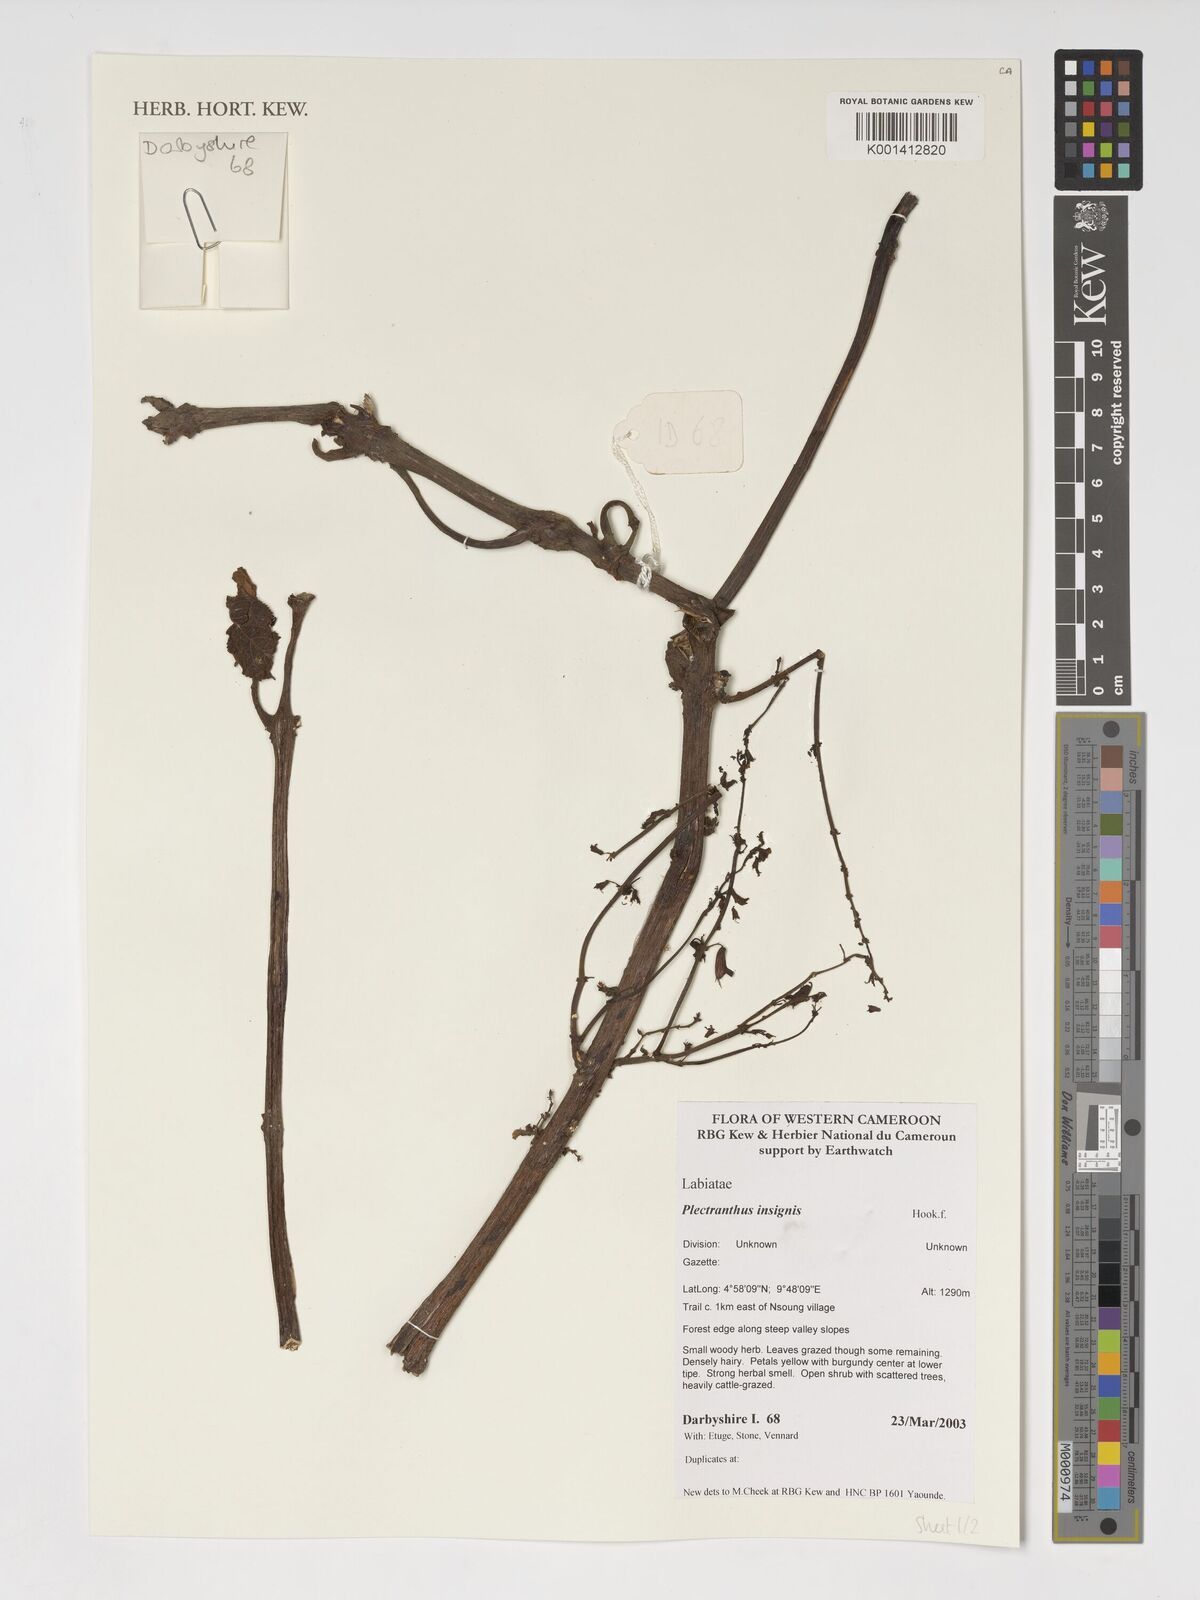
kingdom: Plantae
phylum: Tracheophyta
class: Magnoliopsida
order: Lamiales
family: Lamiaceae
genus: Coleus
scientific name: Coleus insignis
